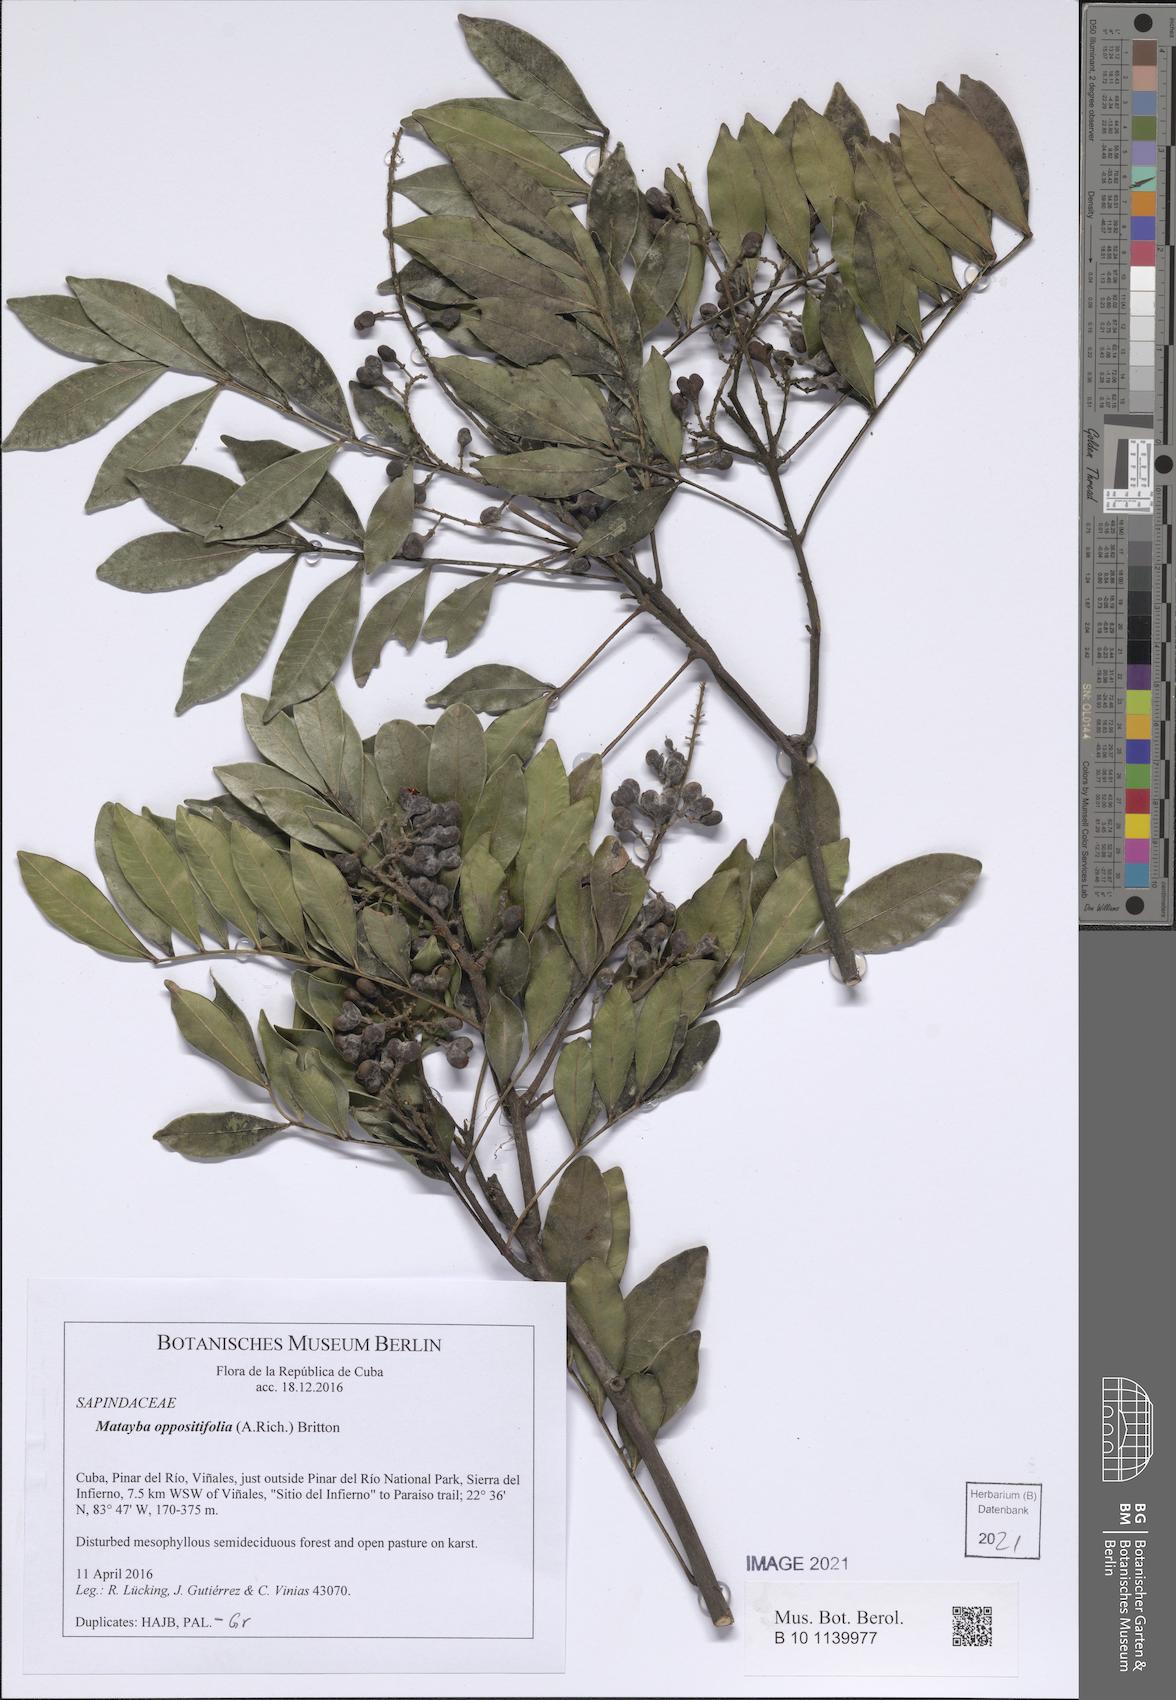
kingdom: Plantae
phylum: Tracheophyta
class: Magnoliopsida
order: Sapindales
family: Sapindaceae
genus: Matayba
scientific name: Matayba oppositifolia
